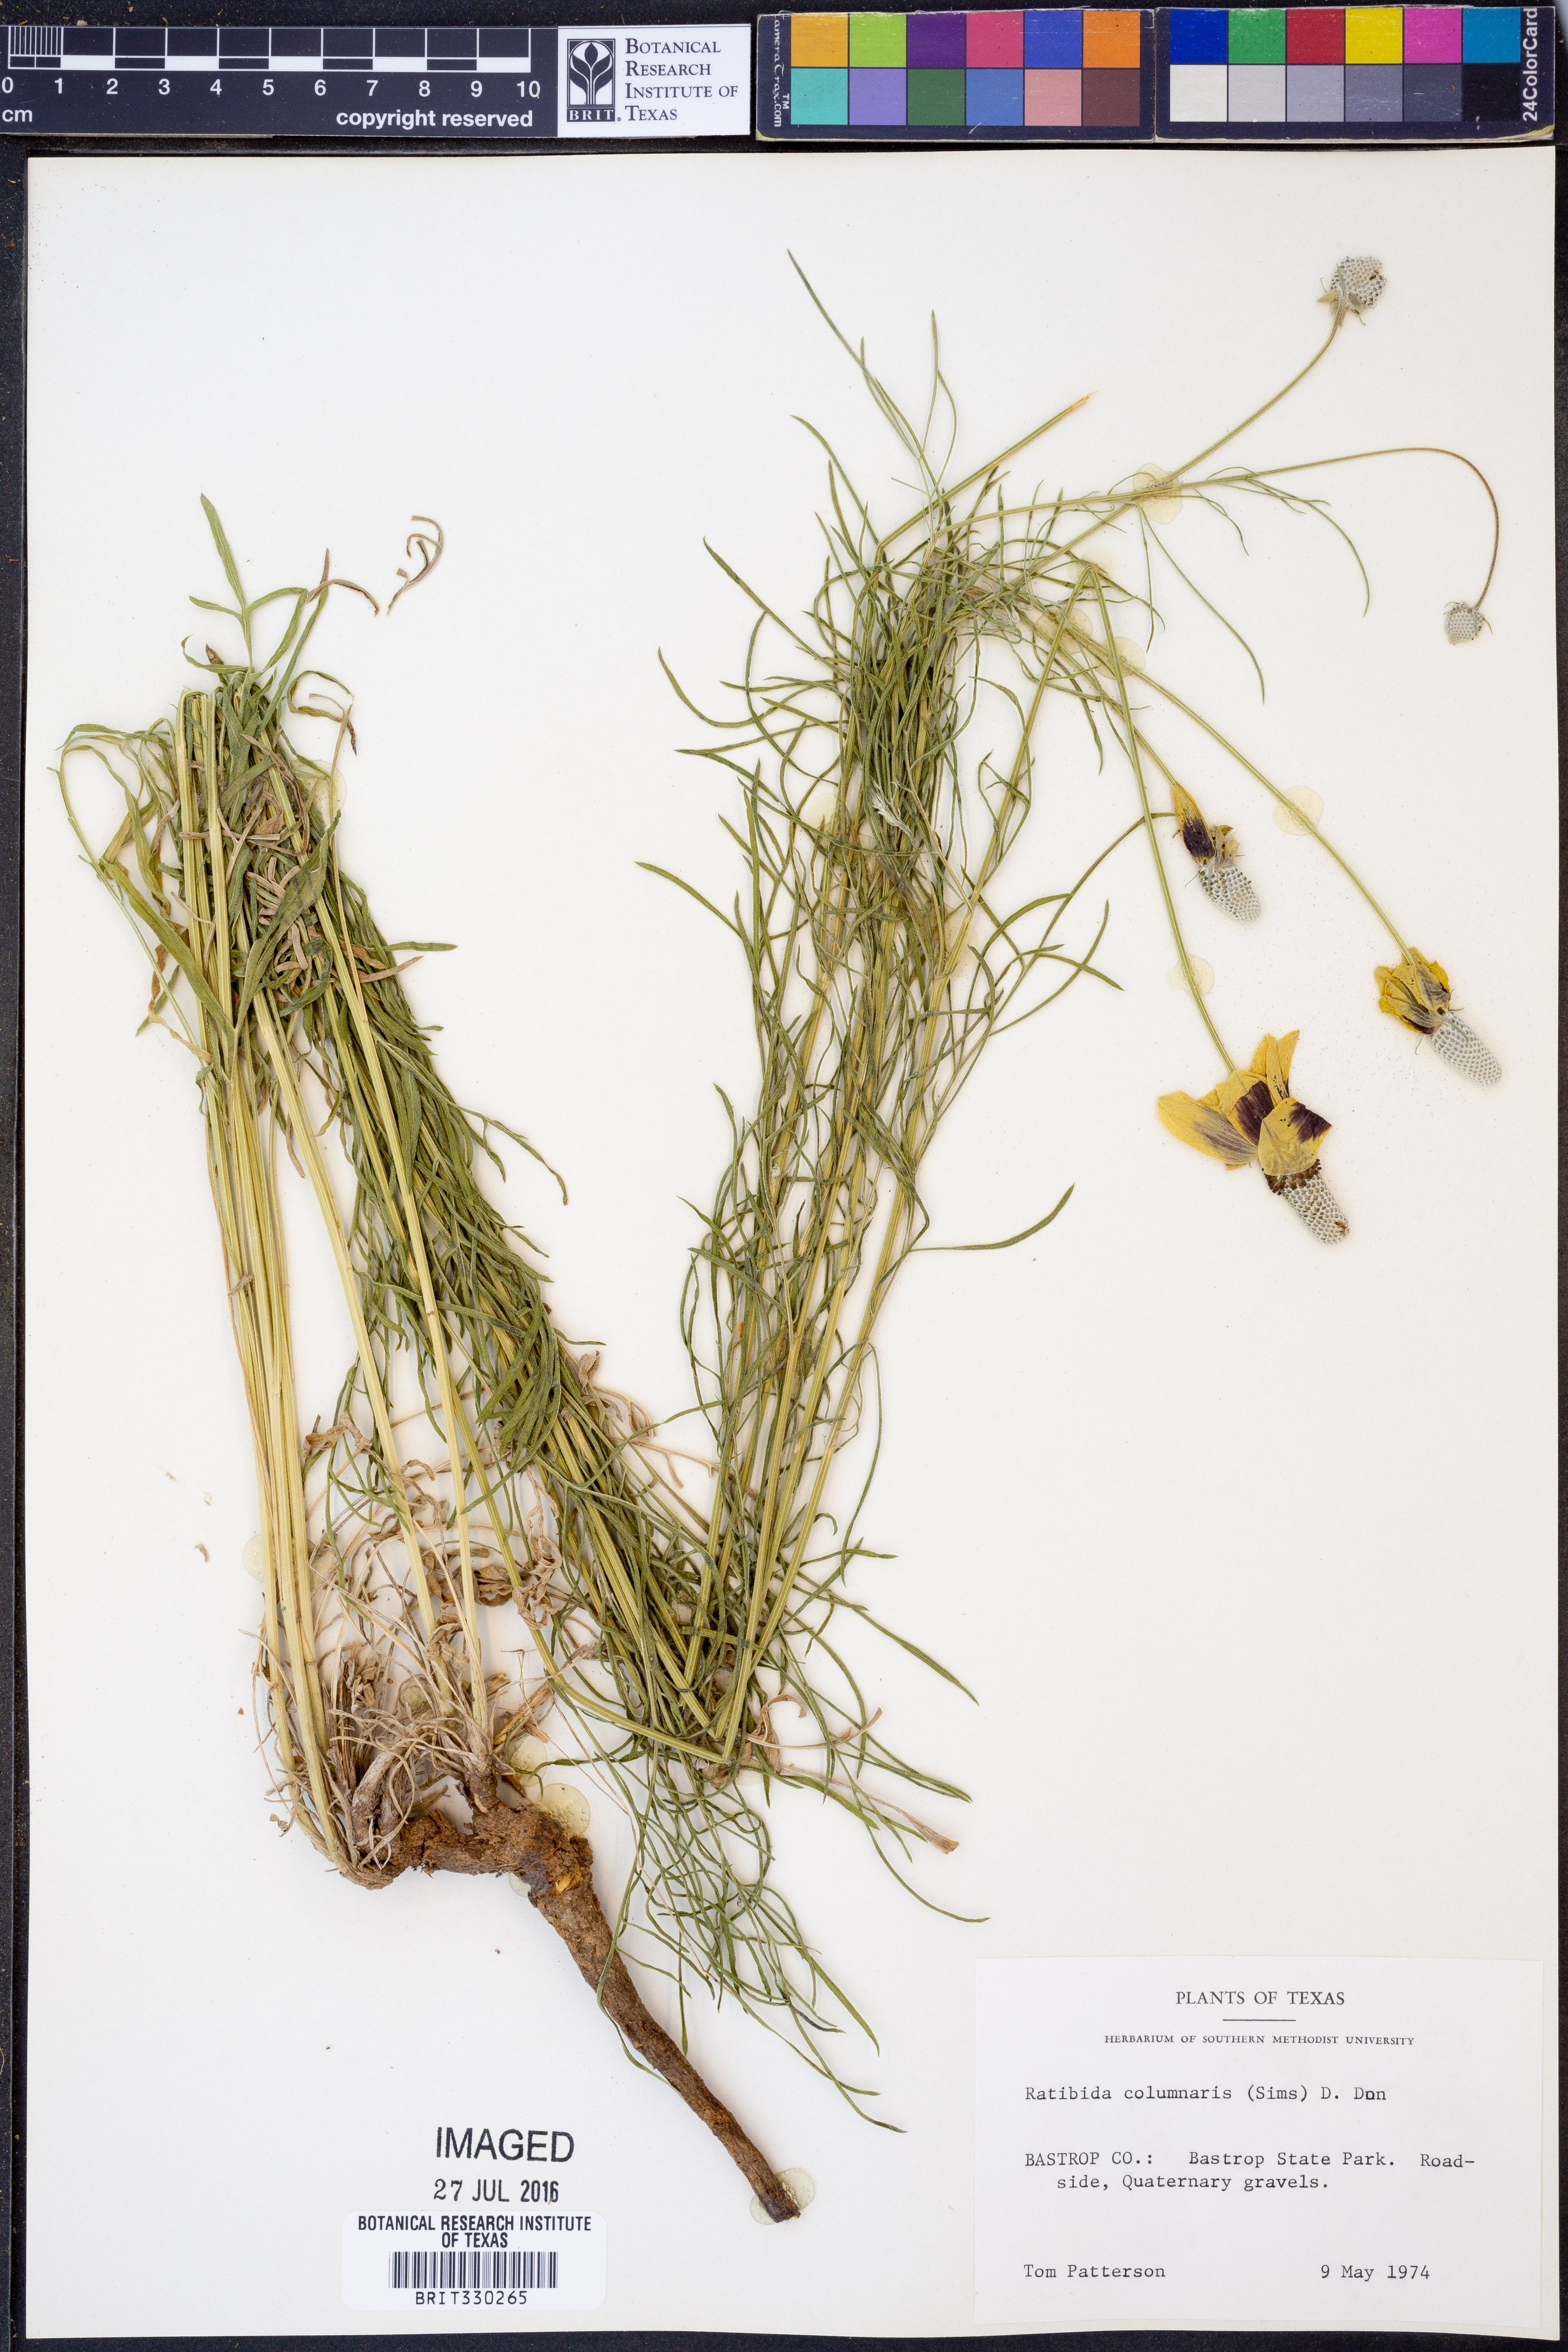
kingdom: Plantae
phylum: Tracheophyta
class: Magnoliopsida
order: Asterales
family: Asteraceae
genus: Ratibida
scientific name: Ratibida columnifera
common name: Prairie coneflower
